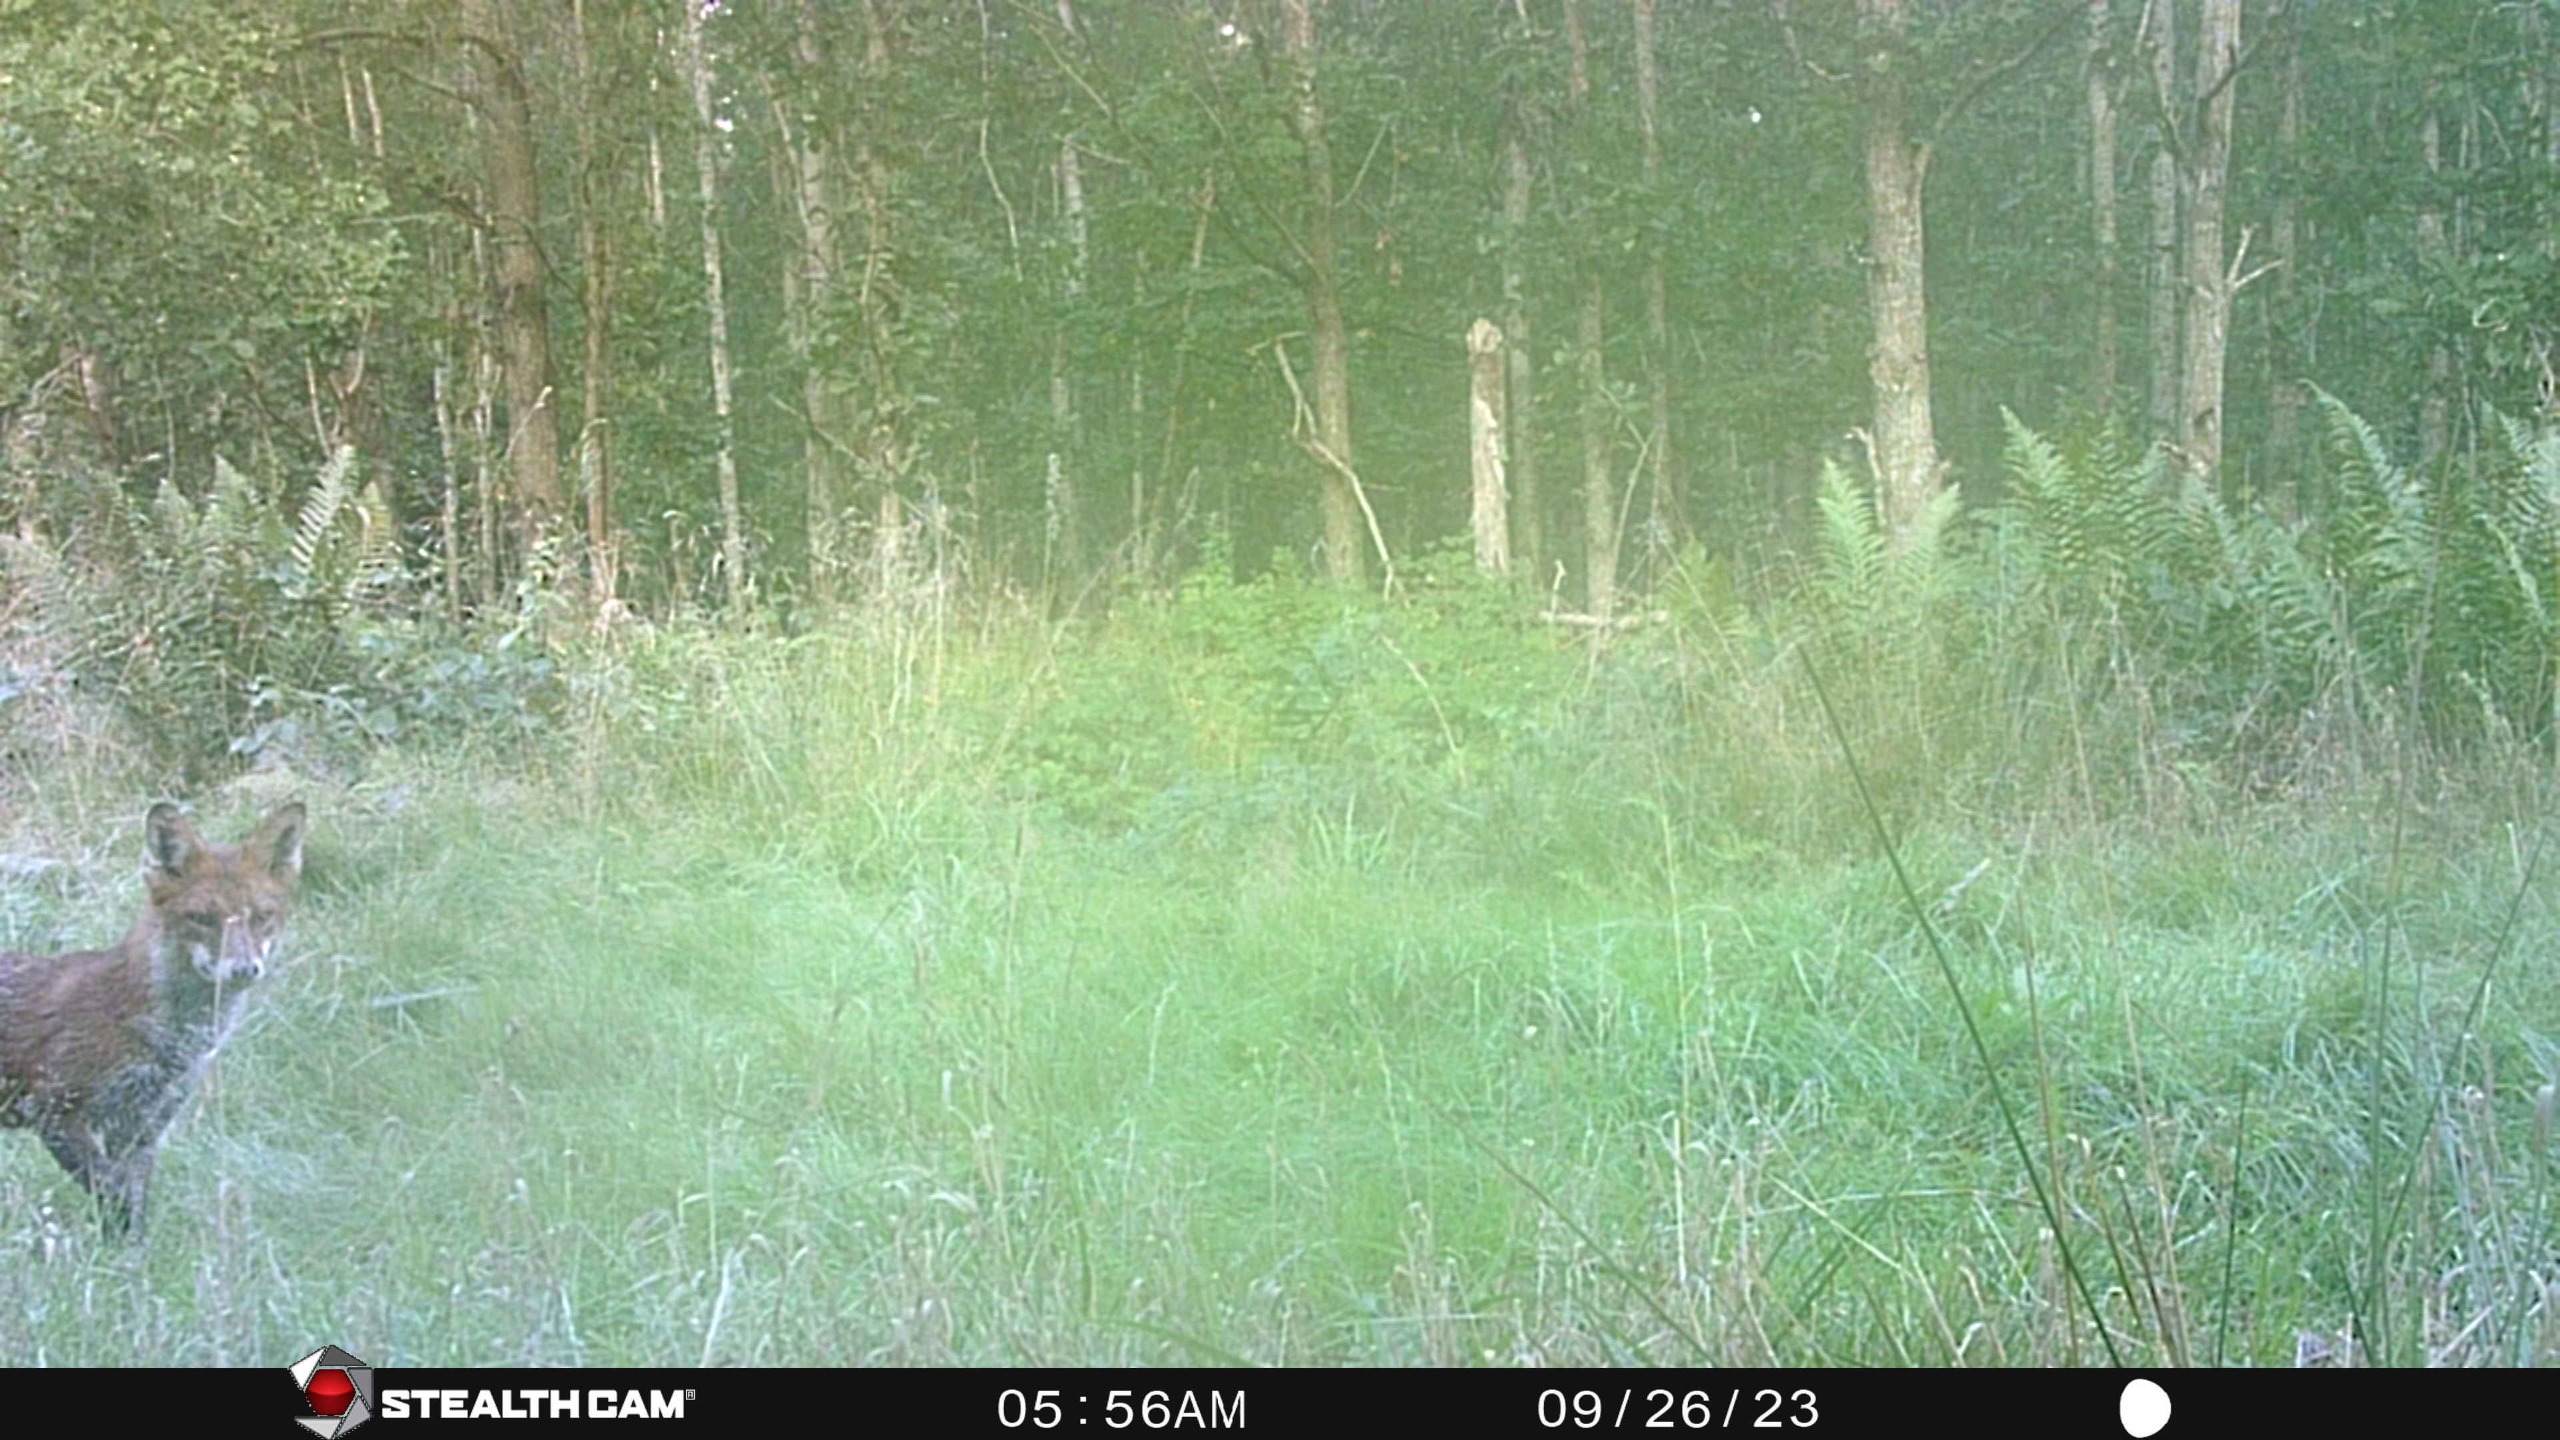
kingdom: Animalia
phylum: Chordata
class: Mammalia
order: Carnivora
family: Canidae
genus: Vulpes
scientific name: Vulpes vulpes
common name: Ræv
